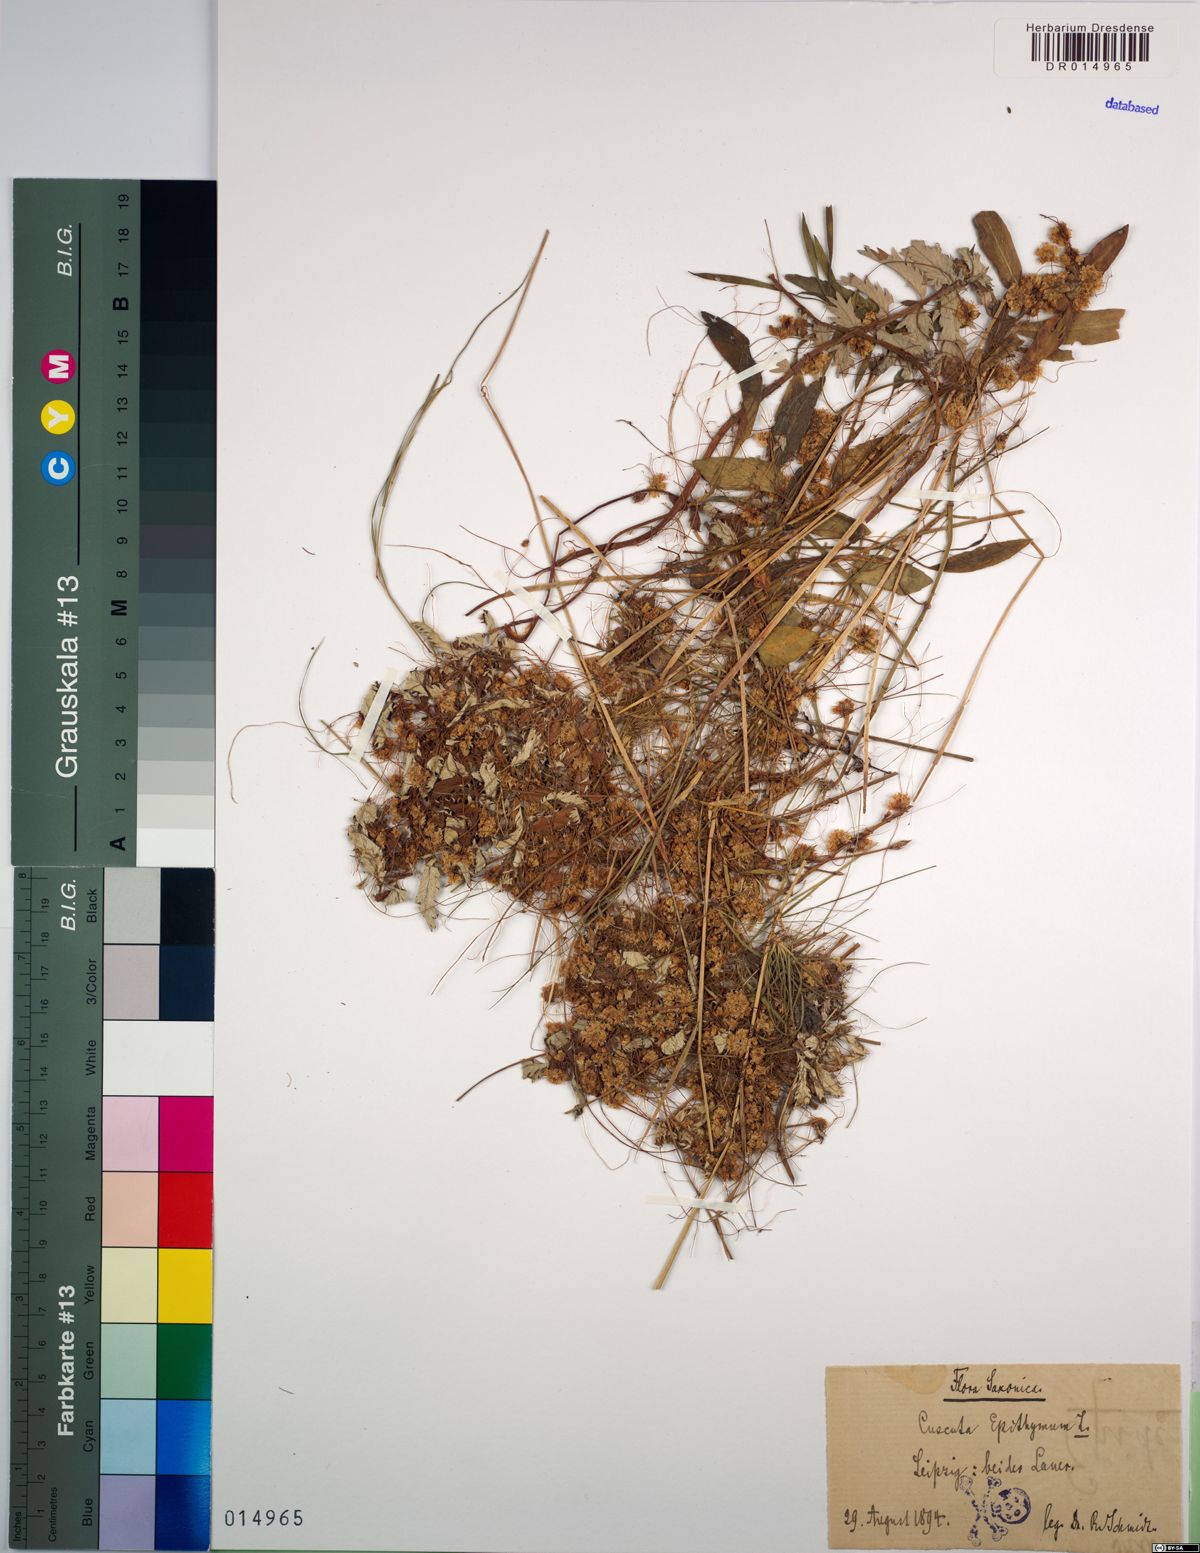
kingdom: Plantae
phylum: Tracheophyta
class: Magnoliopsida
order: Solanales
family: Convolvulaceae
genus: Cuscuta
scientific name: Cuscuta epithymum
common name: Clover dodder
